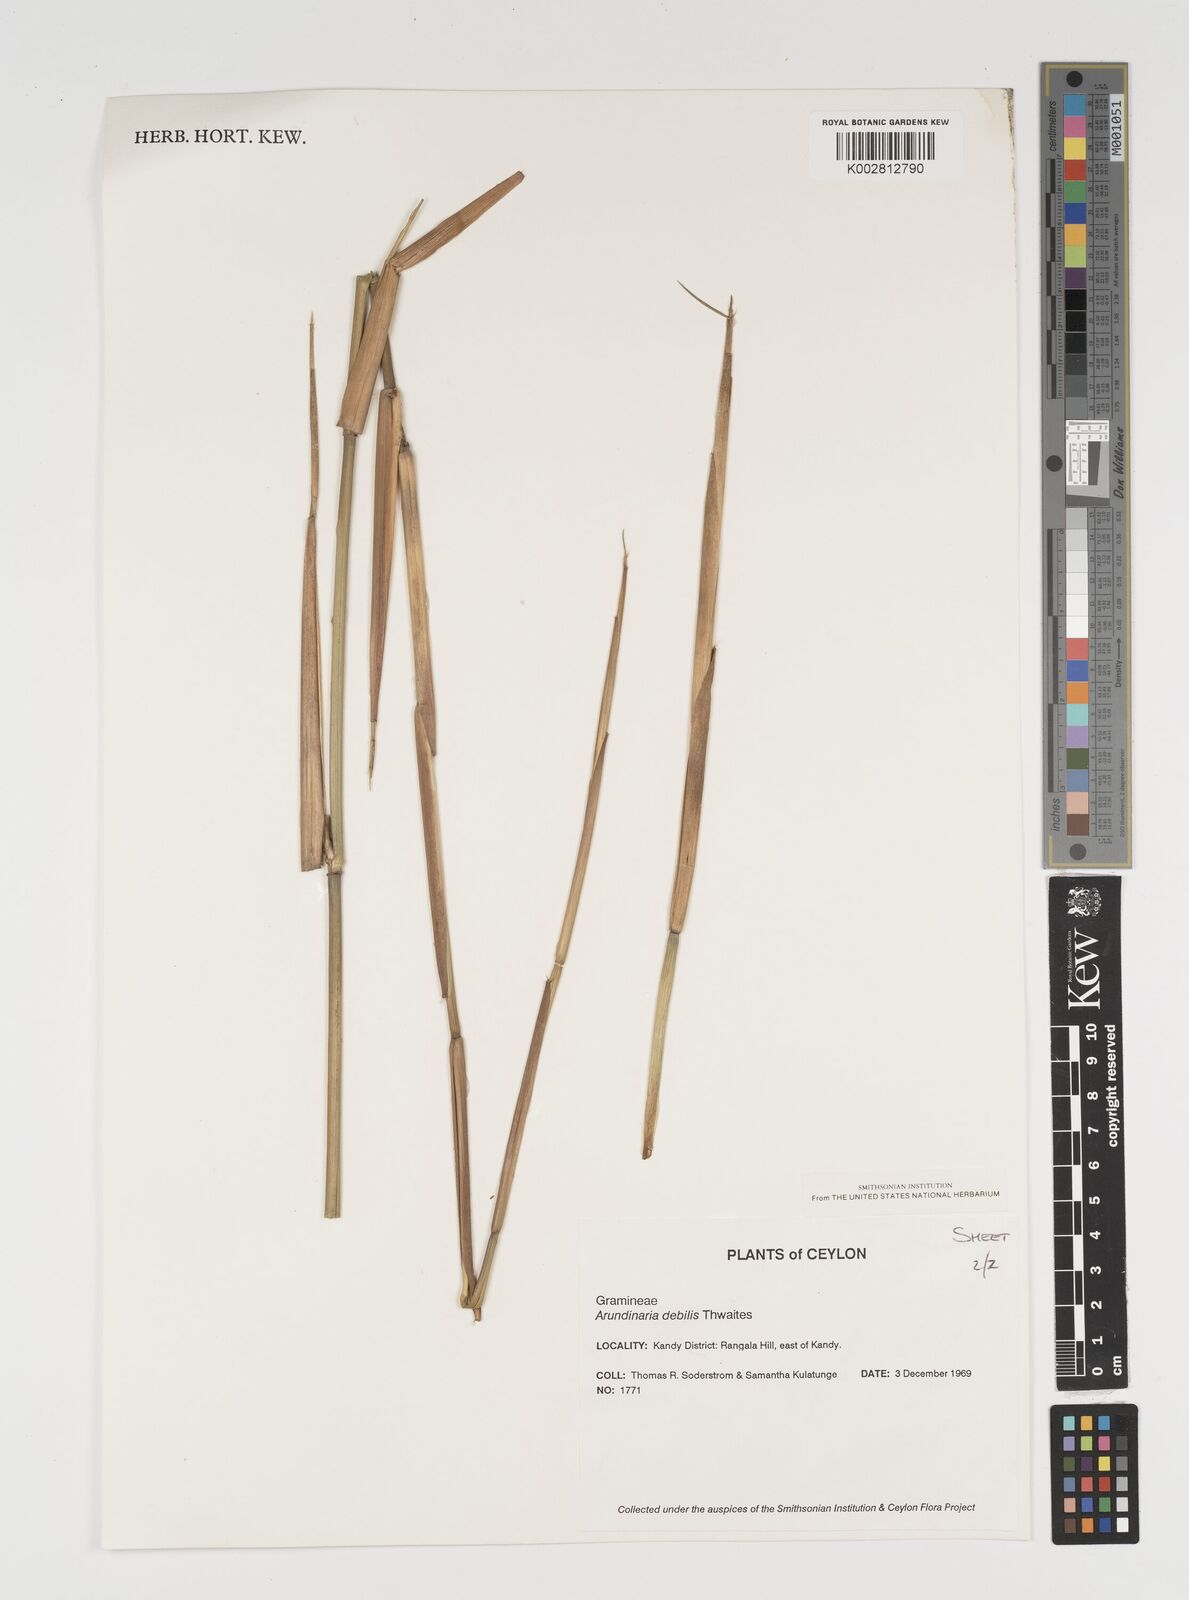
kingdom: Plantae
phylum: Tracheophyta
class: Liliopsida
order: Poales
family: Poaceae
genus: Kuruna
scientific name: Kuruna debilis
